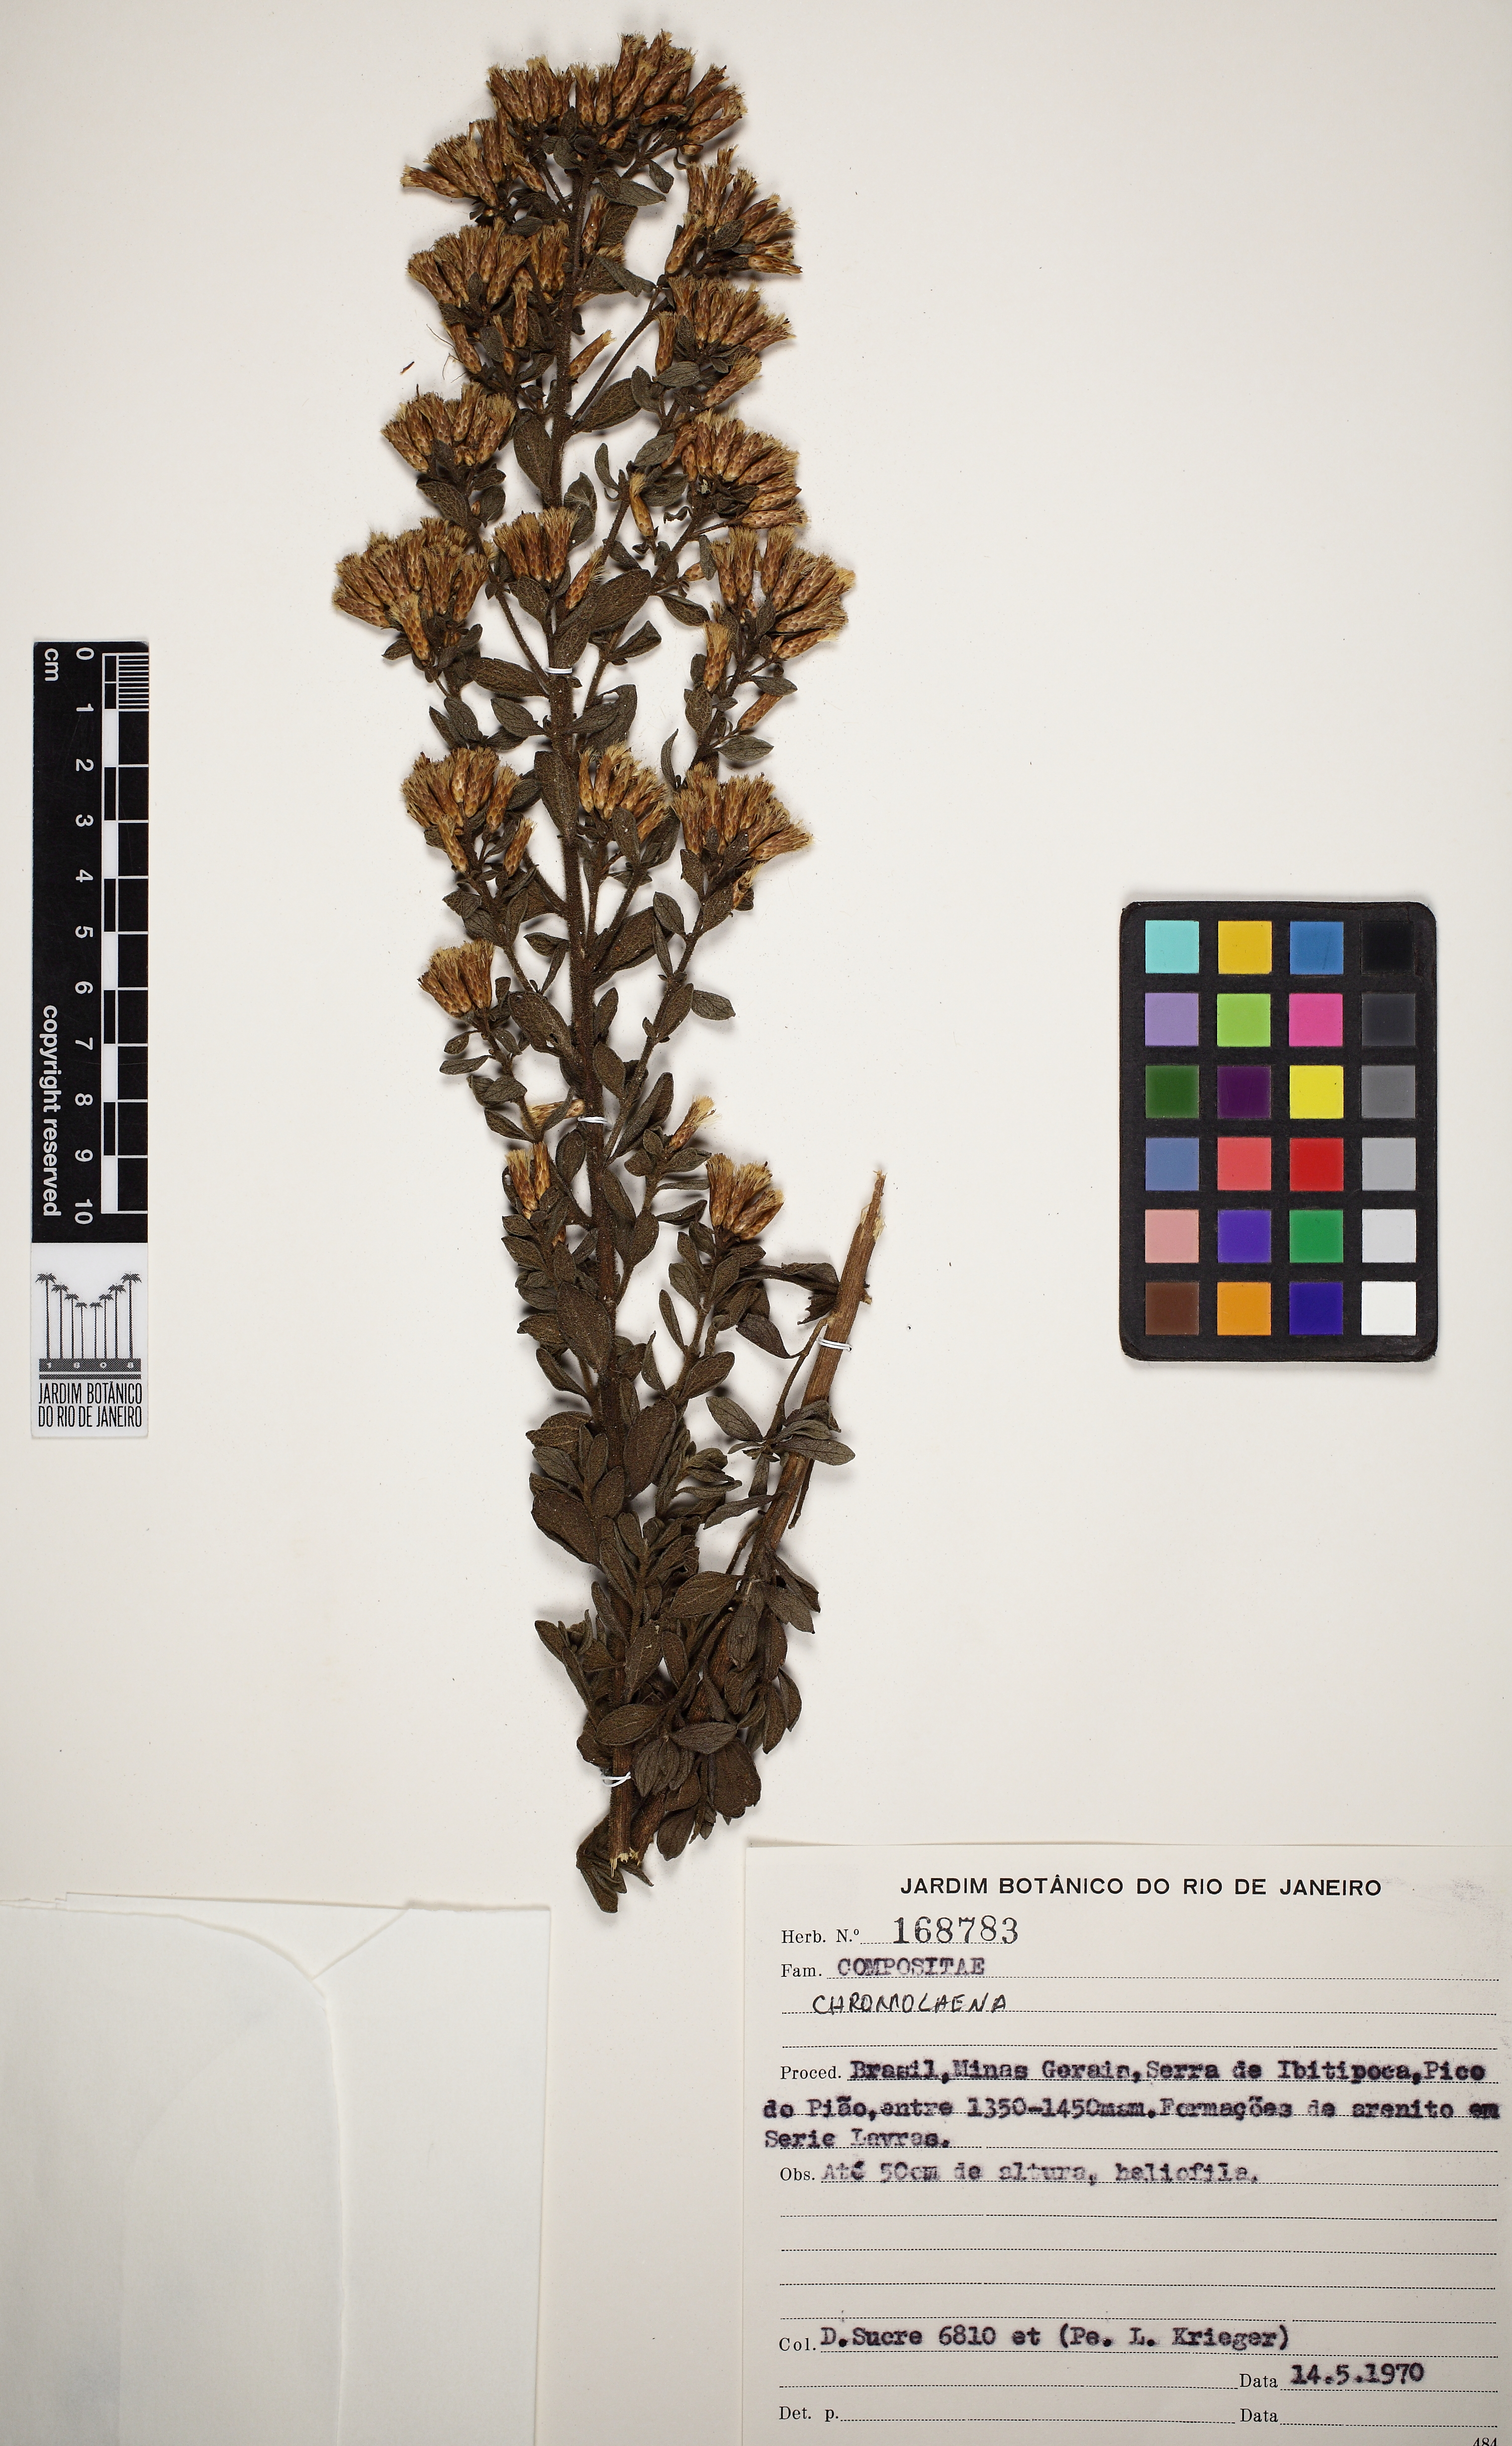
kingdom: Plantae
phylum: Tracheophyta
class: Magnoliopsida
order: Asterales
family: Asteraceae
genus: Chromolaena
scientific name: Chromolaena barbacensis
